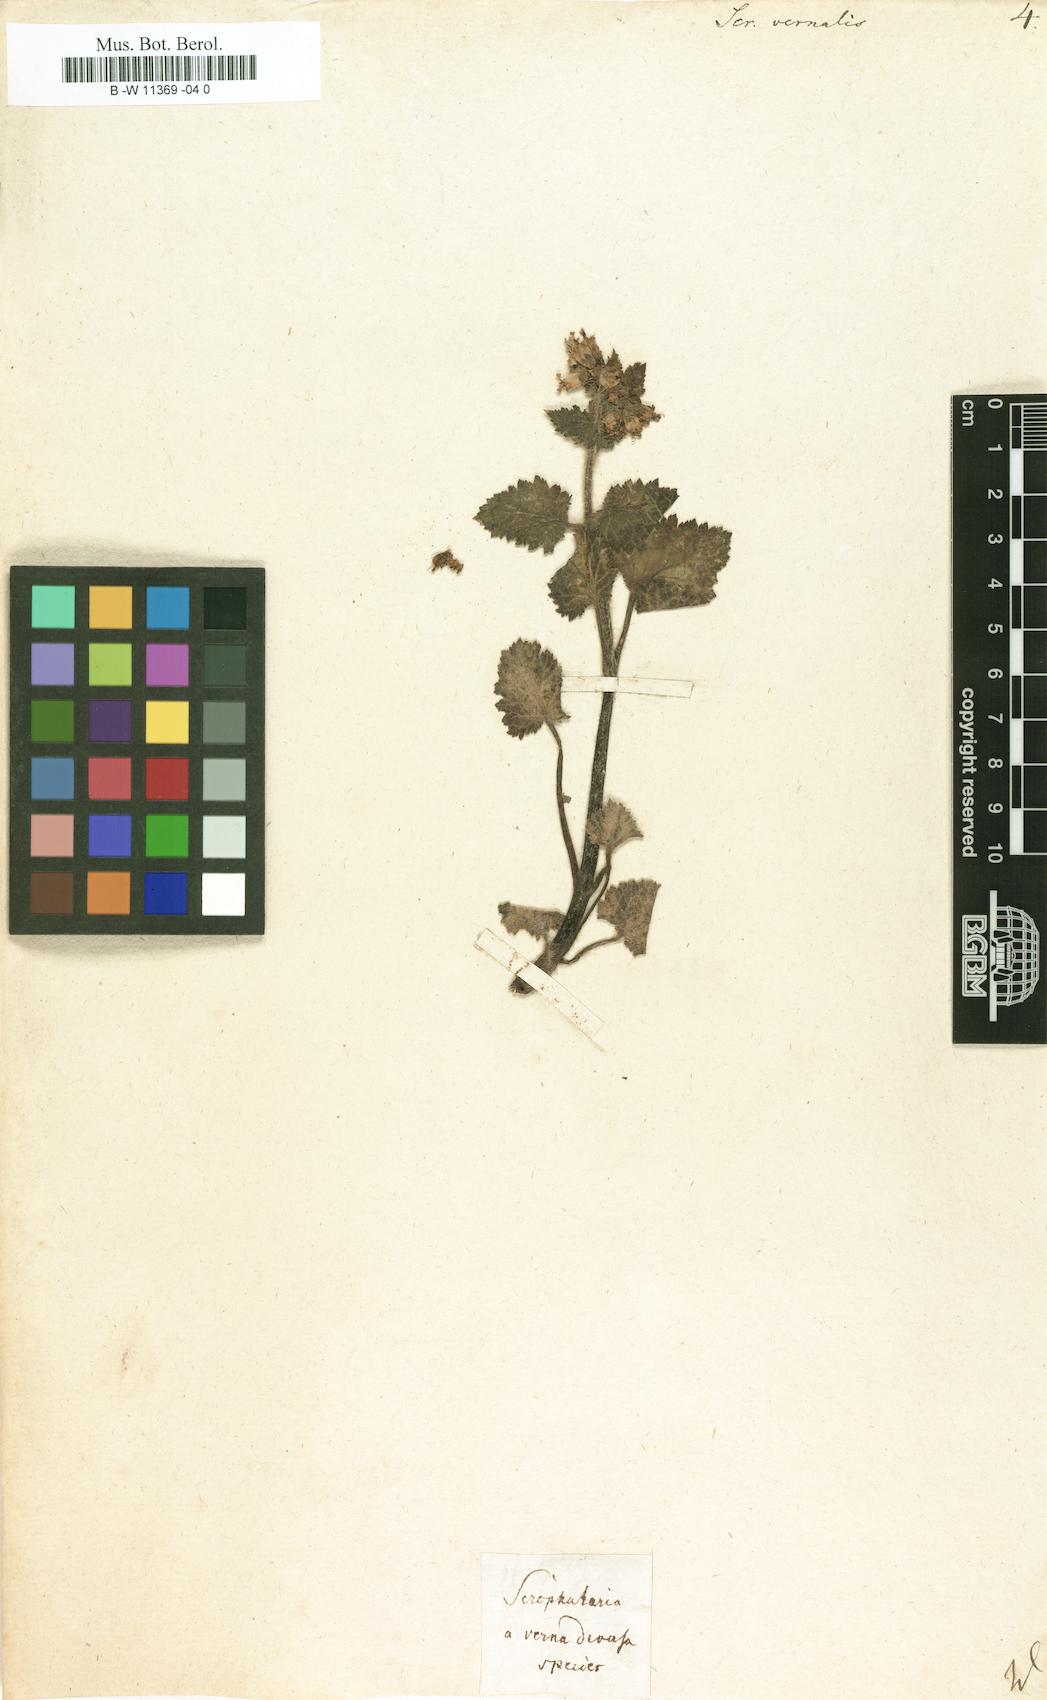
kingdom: Plantae
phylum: Tracheophyta
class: Magnoliopsida
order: Lamiales
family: Scrophulariaceae
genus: Scrophularia
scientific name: Scrophularia vernalis
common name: Yellow figwort
